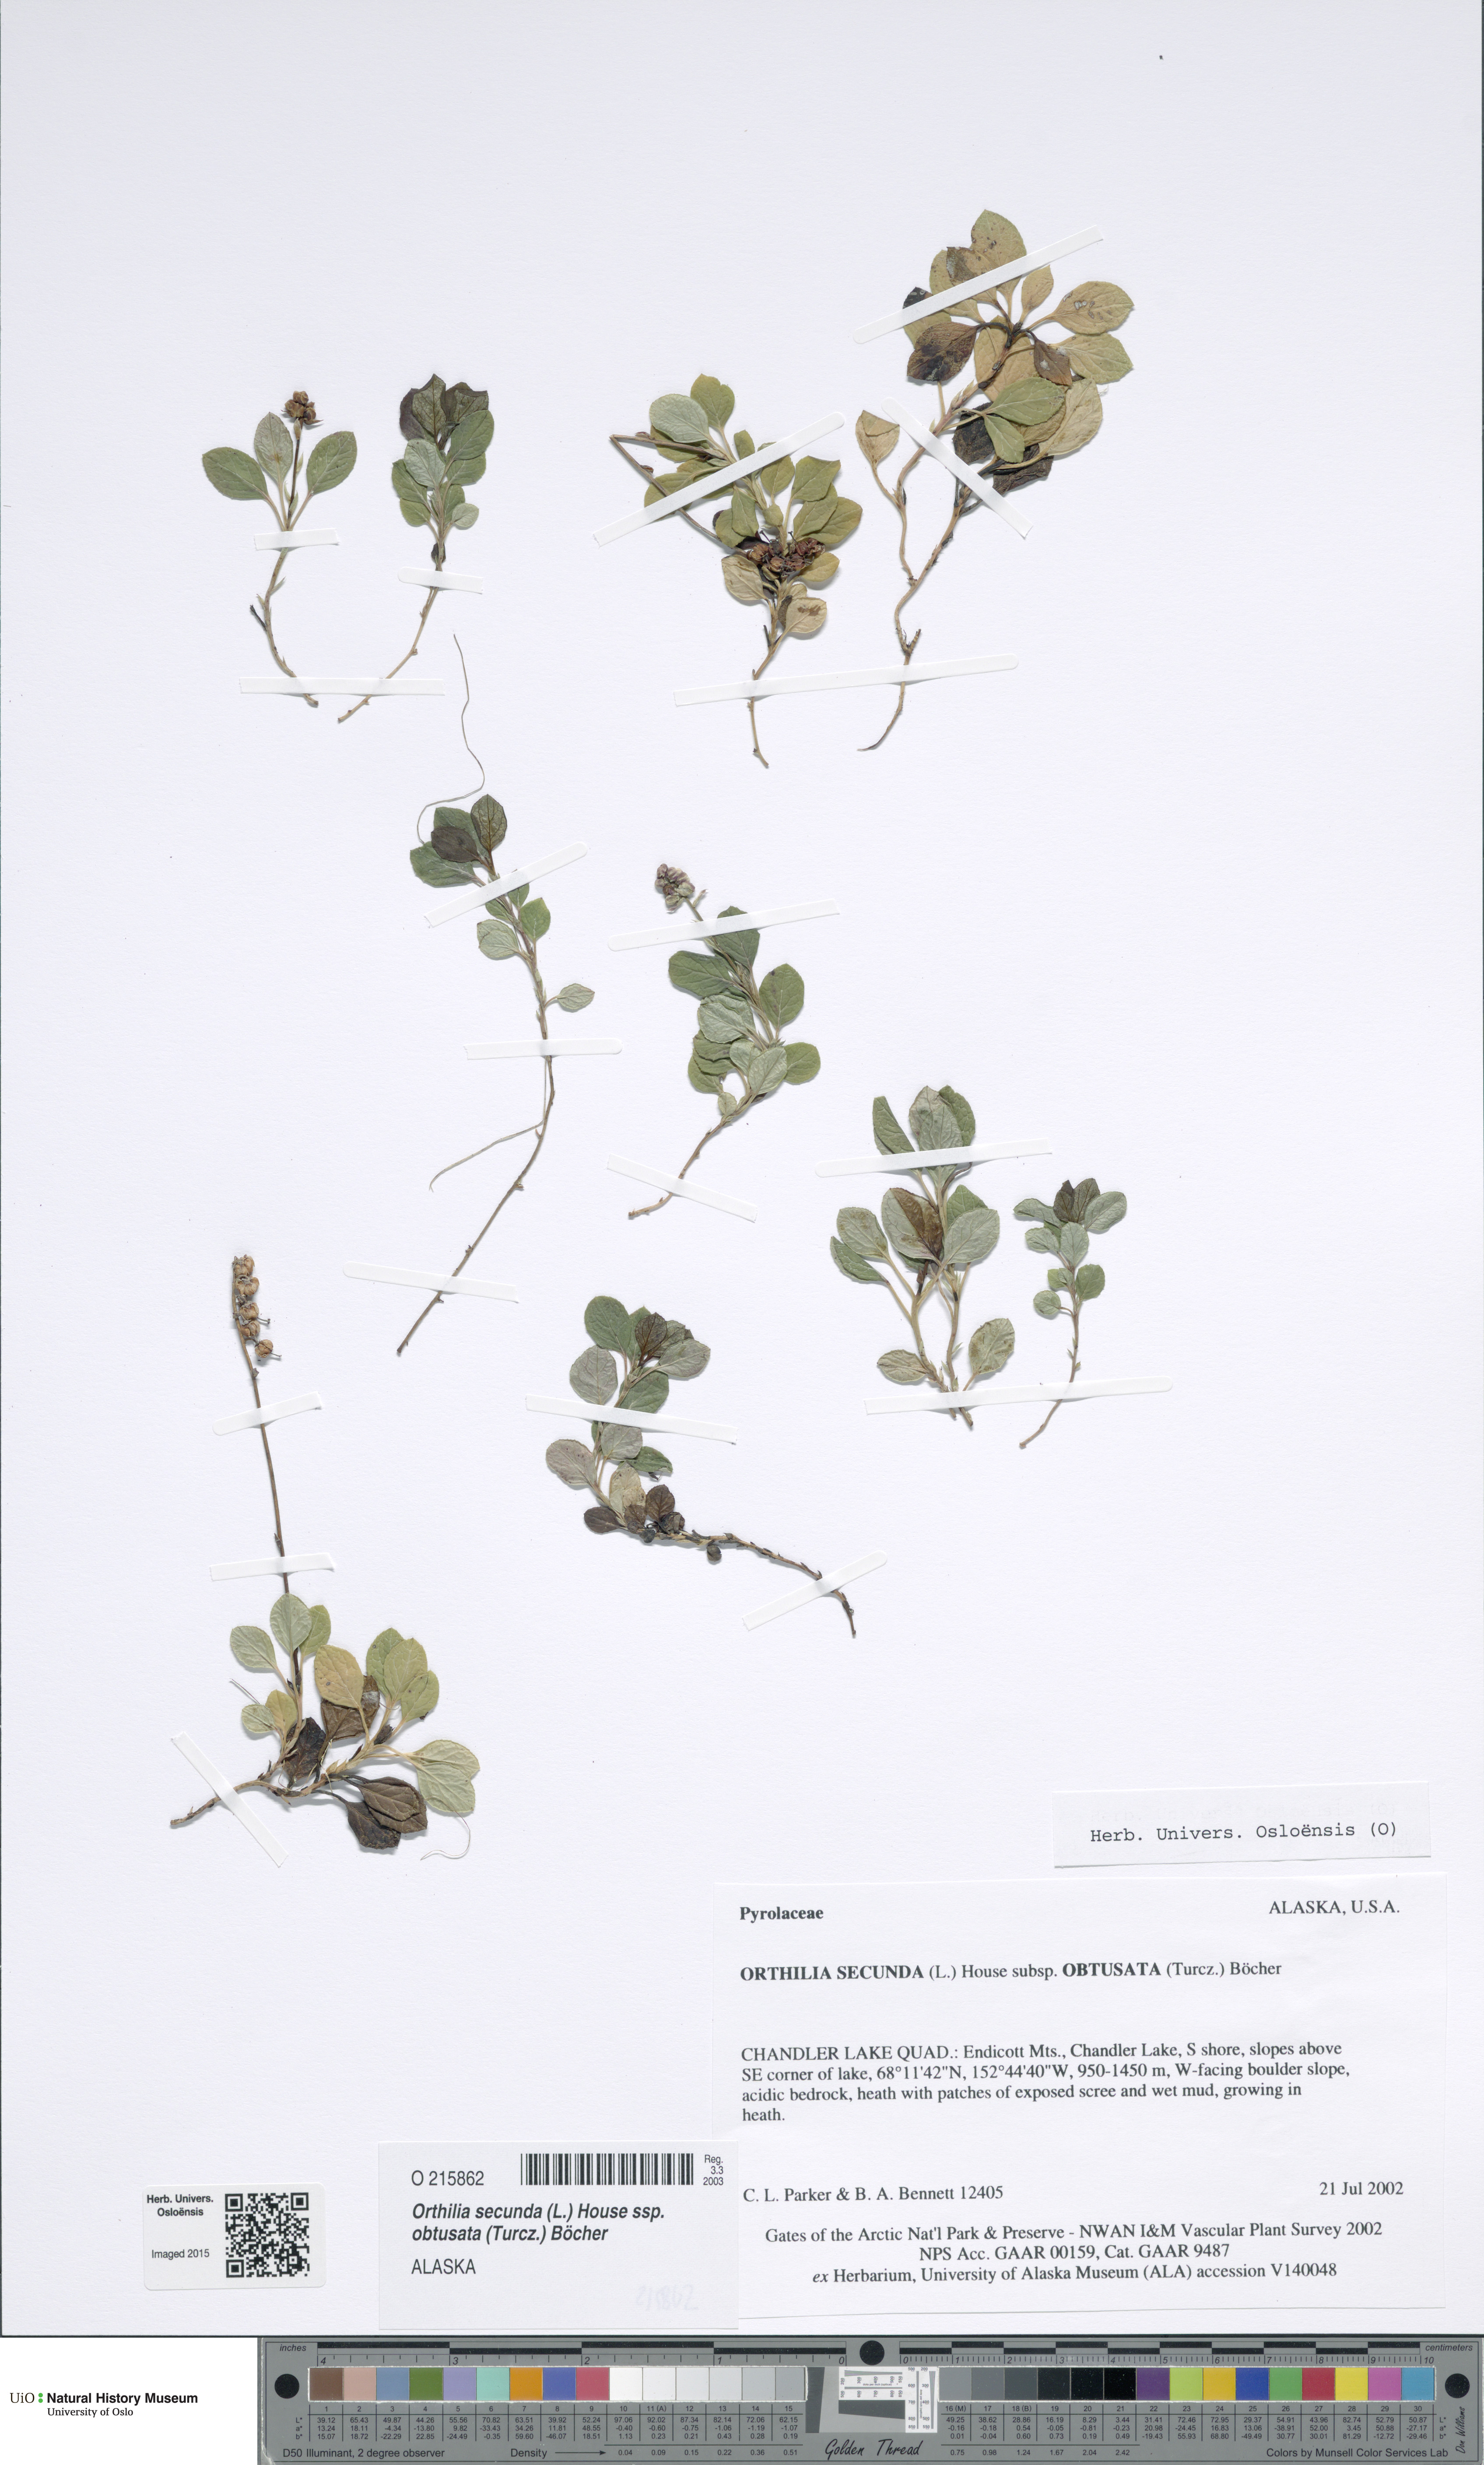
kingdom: Plantae
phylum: Tracheophyta
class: Magnoliopsida
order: Ericales
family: Ericaceae
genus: Orthilia
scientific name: Orthilia secunda
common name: One-sided orthilia
